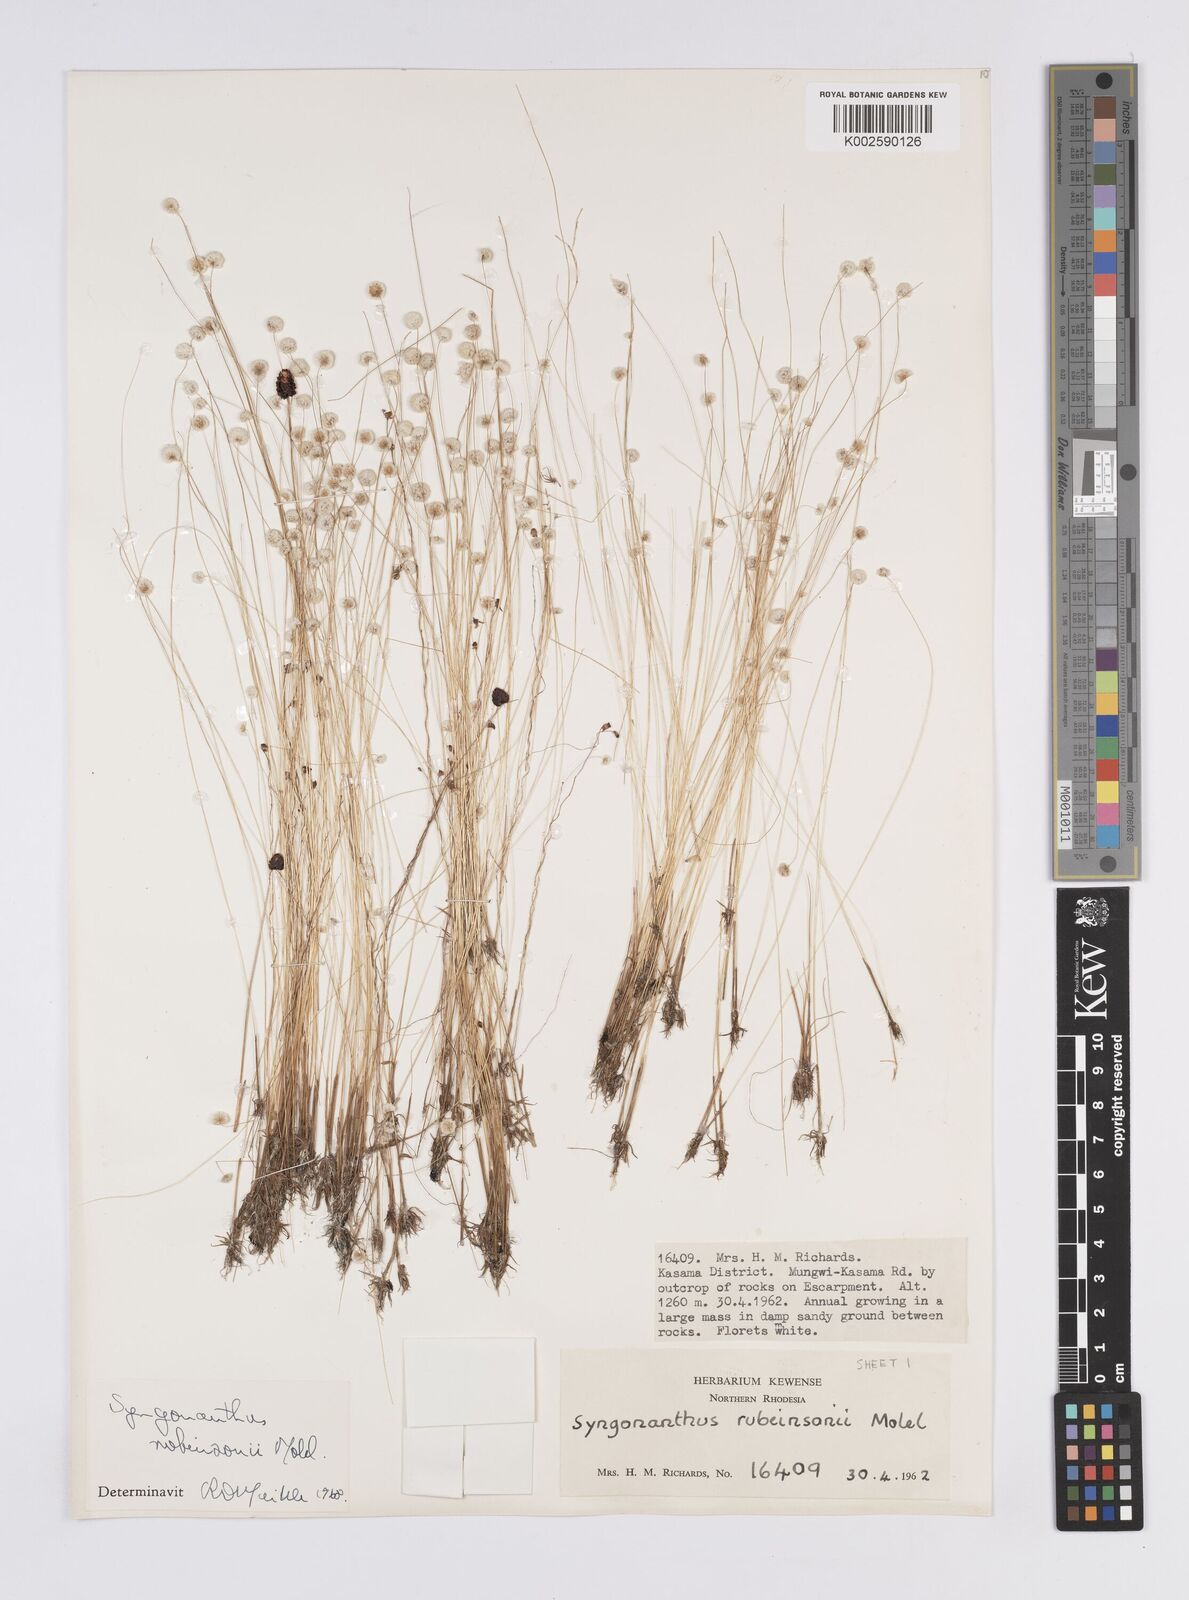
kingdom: Plantae
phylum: Tracheophyta
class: Liliopsida
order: Poales
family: Eriocaulaceae
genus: Syngonanthus
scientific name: Syngonanthus robinsonii
